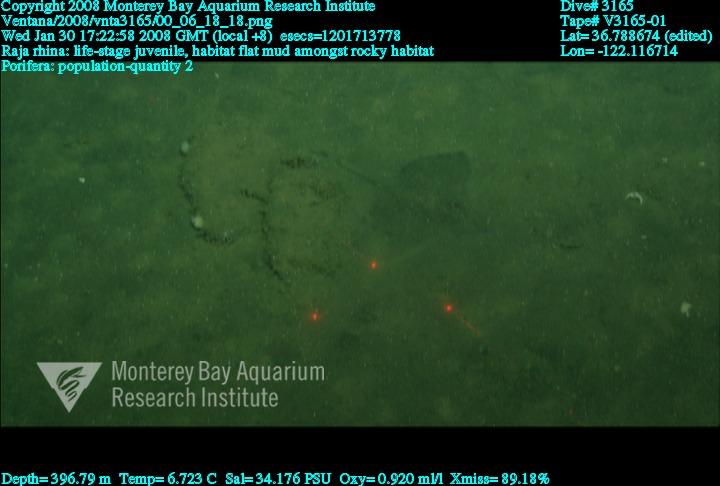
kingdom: Animalia
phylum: Porifera
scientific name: Porifera
